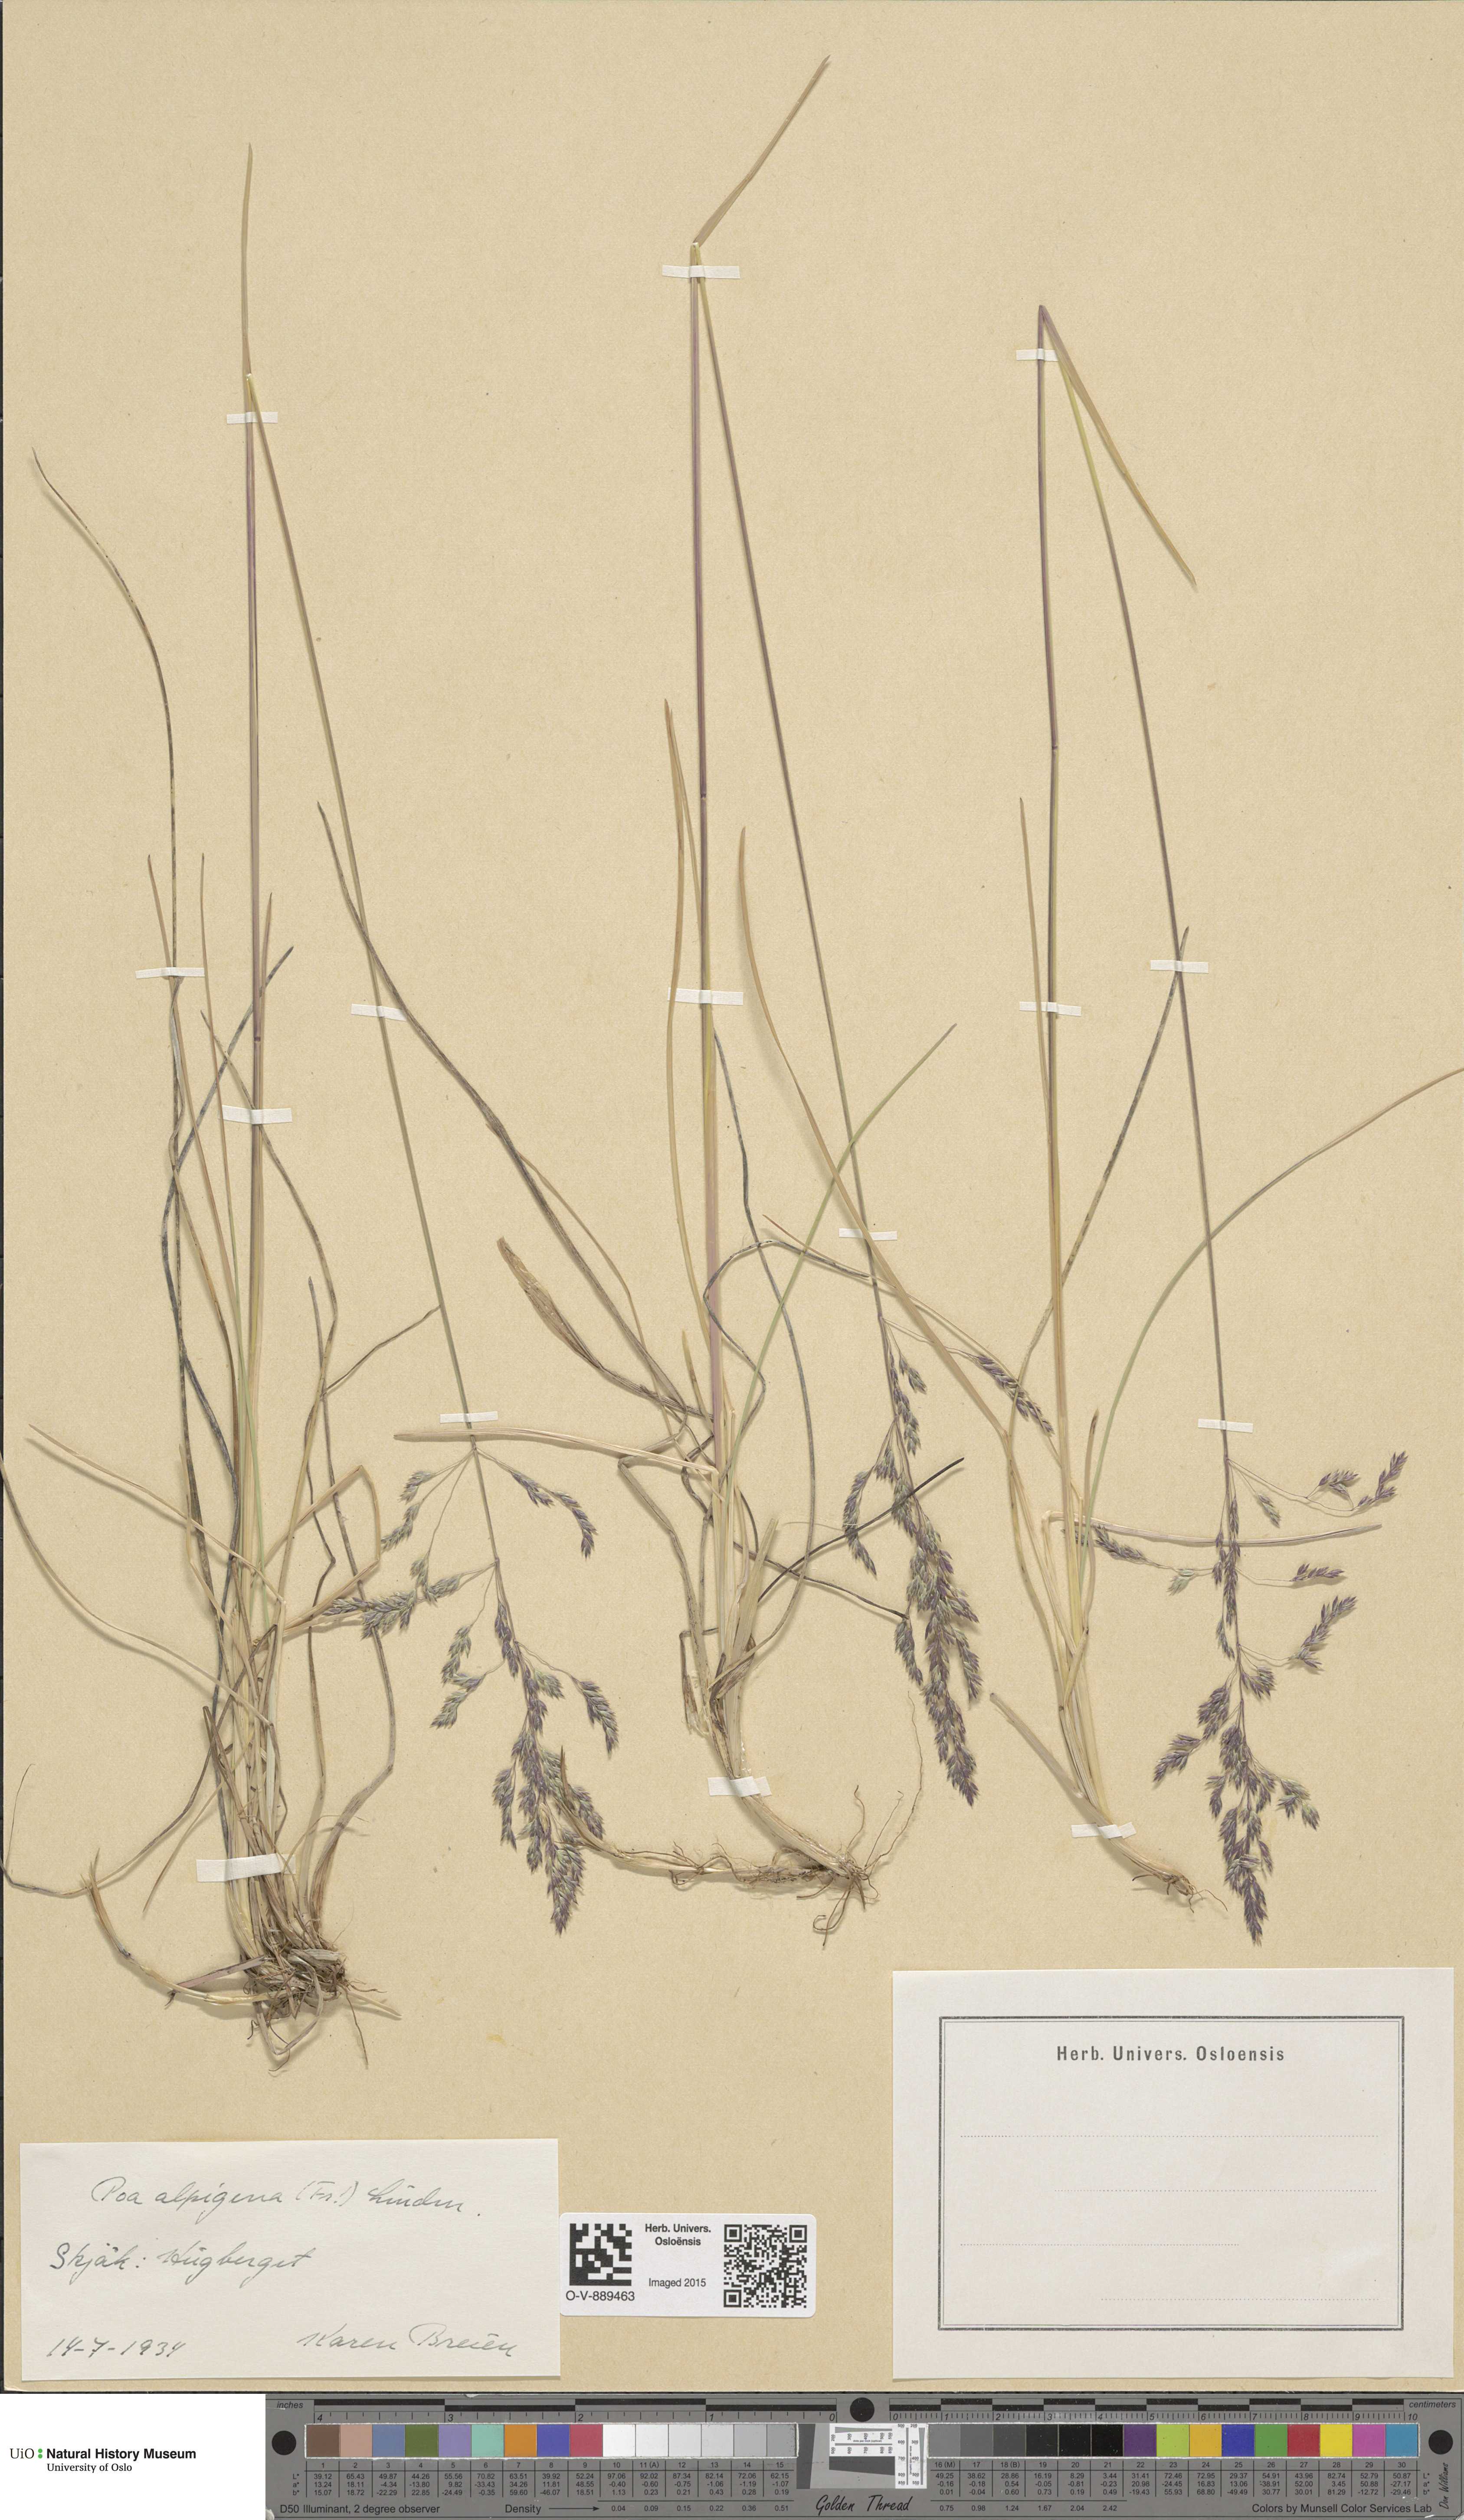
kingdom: Plantae
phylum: Tracheophyta
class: Liliopsida
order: Poales
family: Poaceae
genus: Poa
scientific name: Poa alpigena
